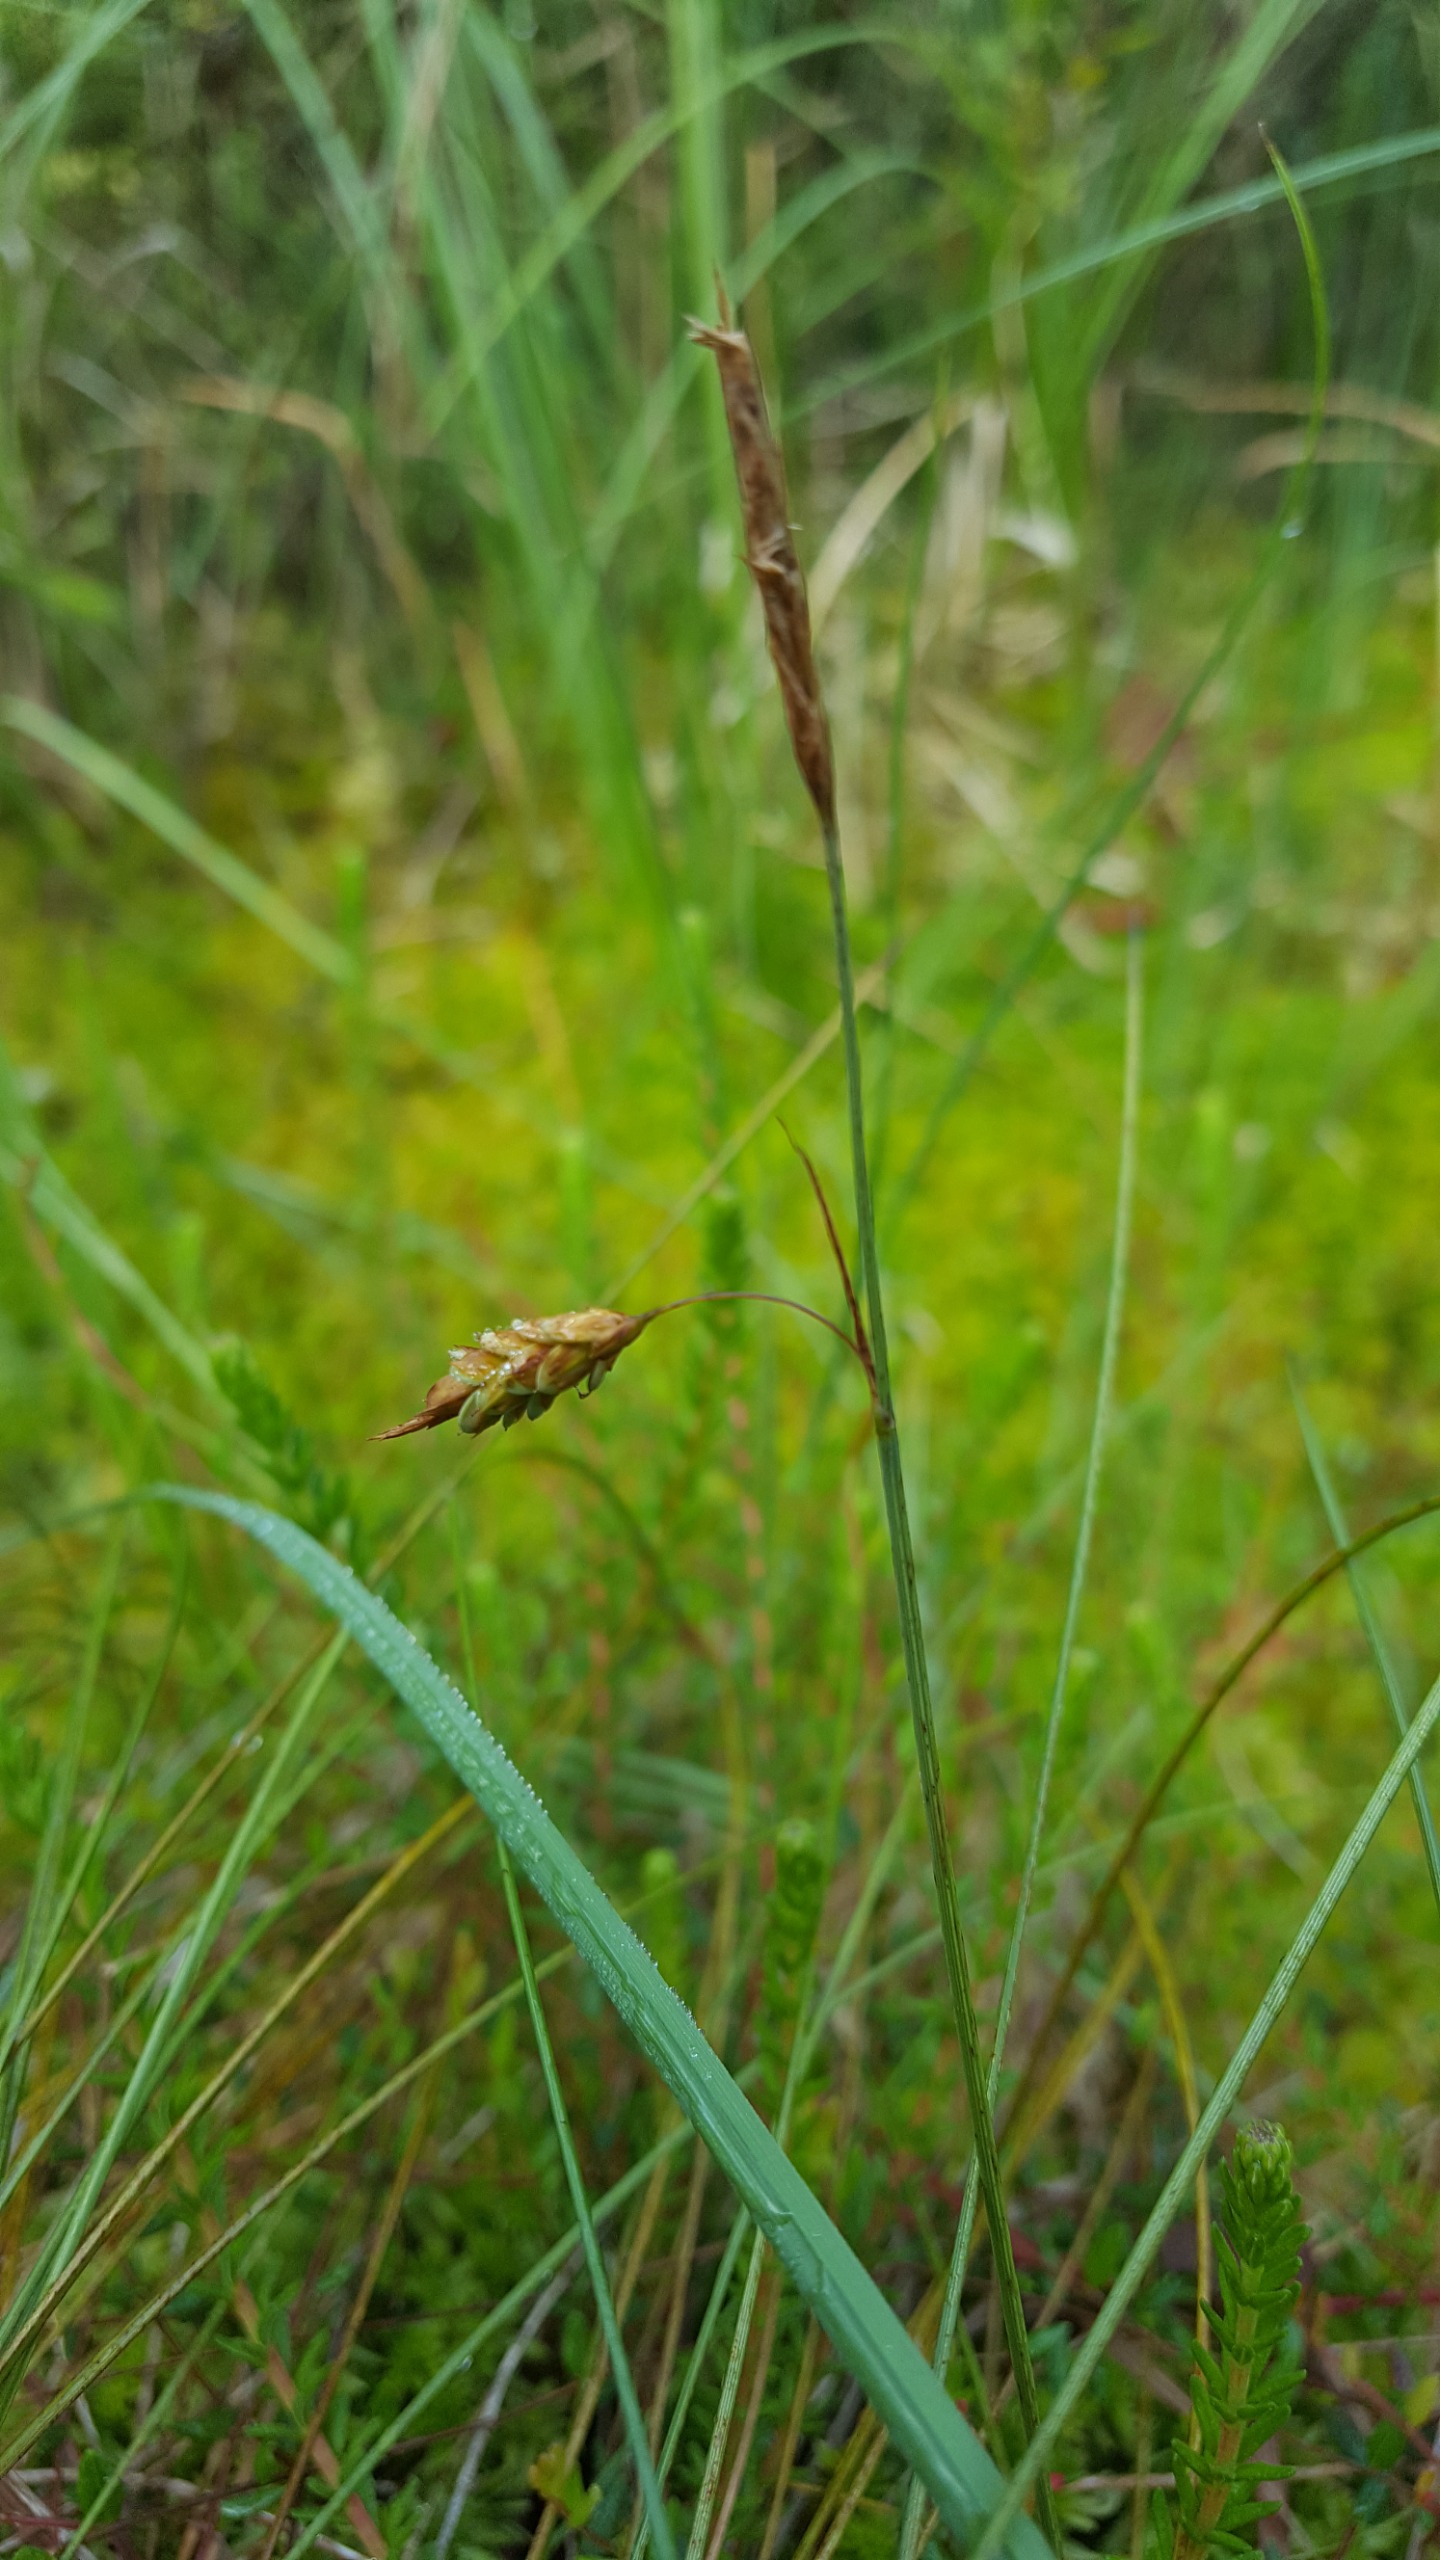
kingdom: Plantae
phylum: Tracheophyta
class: Liliopsida
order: Poales
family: Cyperaceae
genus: Carex
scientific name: Carex limosa
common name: Dynd-star
